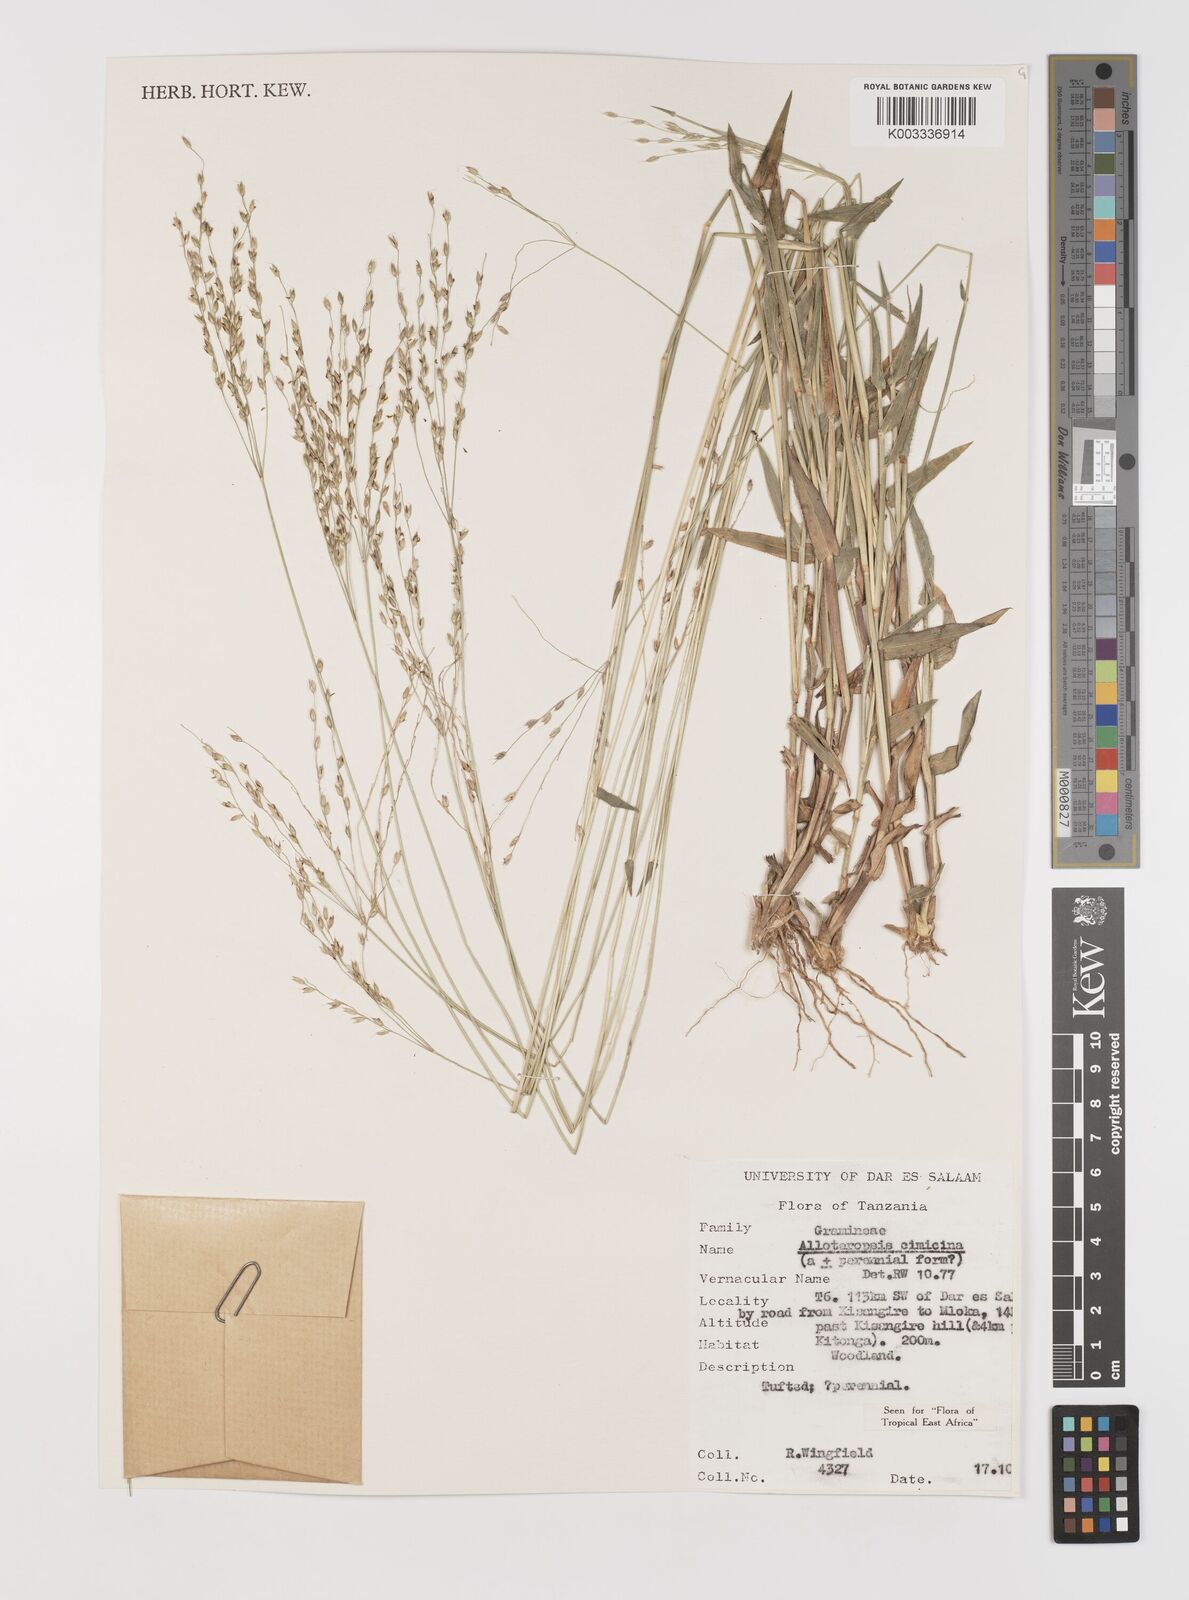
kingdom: Plantae
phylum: Tracheophyta
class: Liliopsida
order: Poales
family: Poaceae
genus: Alloteropsis
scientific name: Alloteropsis cimicina
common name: Summergrass
